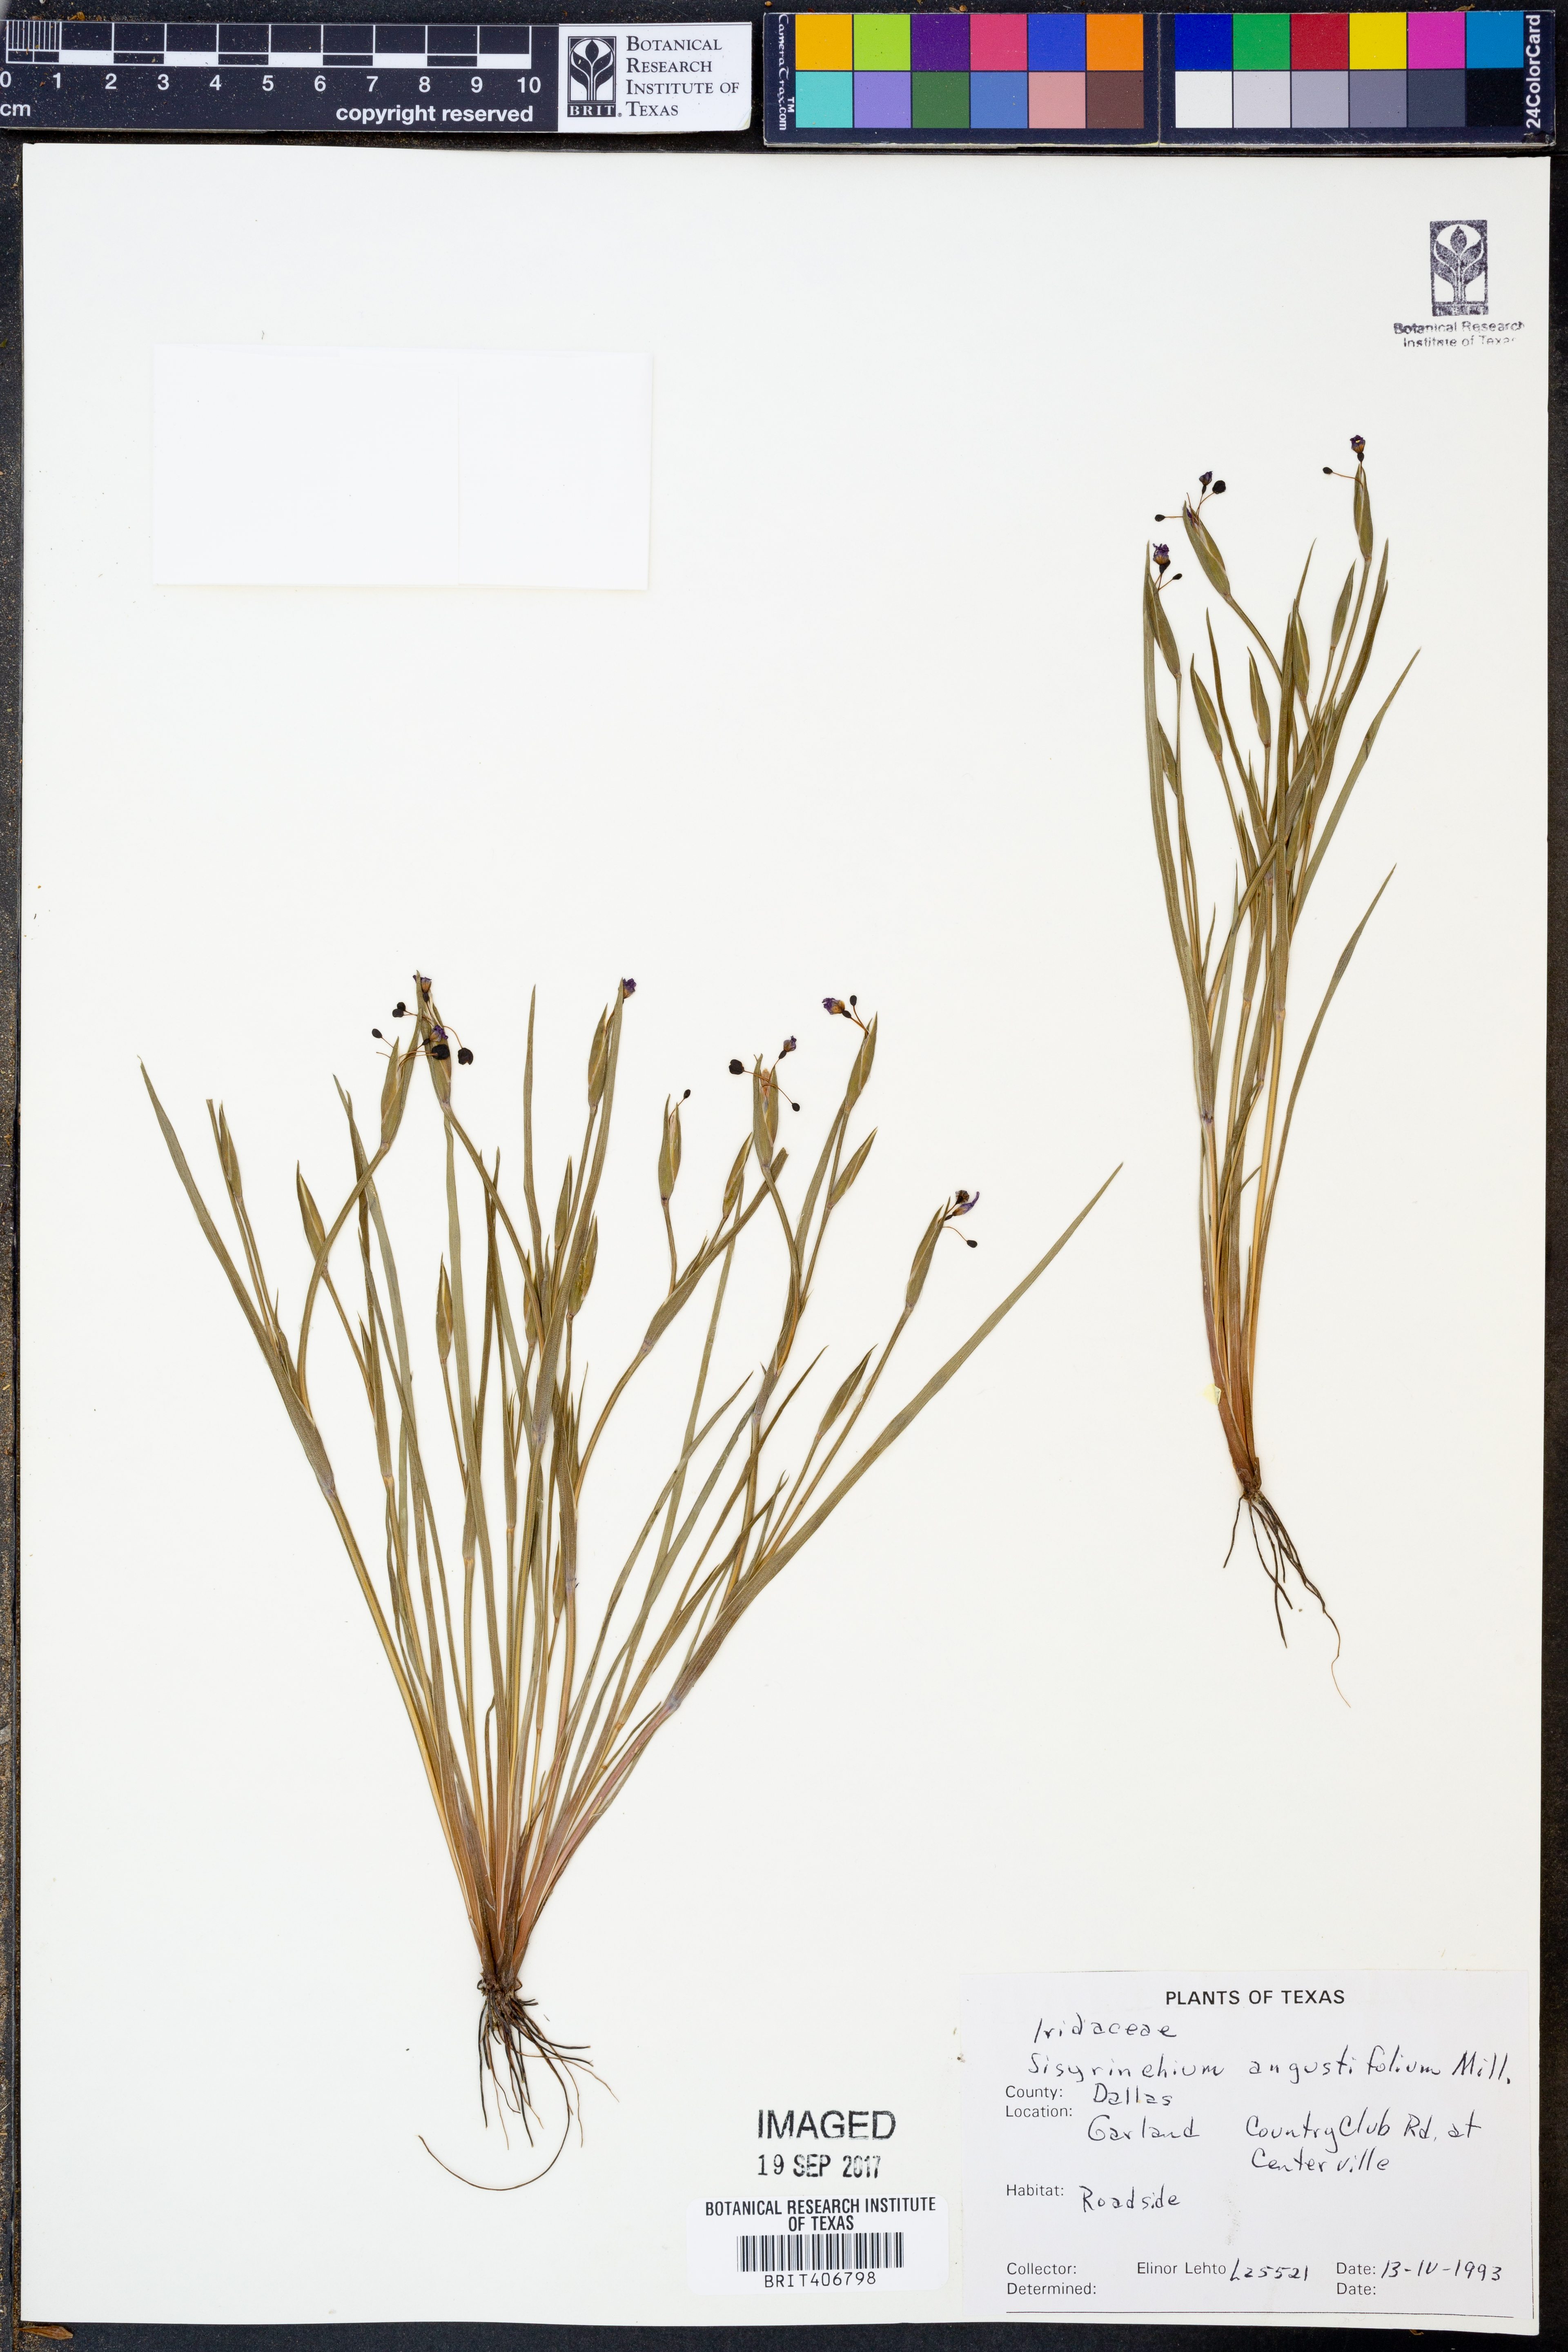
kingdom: Plantae
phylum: Tracheophyta
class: Liliopsida
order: Asparagales
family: Iridaceae
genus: Sisyrinchium
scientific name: Sisyrinchium angustifolium
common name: Narrow-leaf blue-eyed-grass
